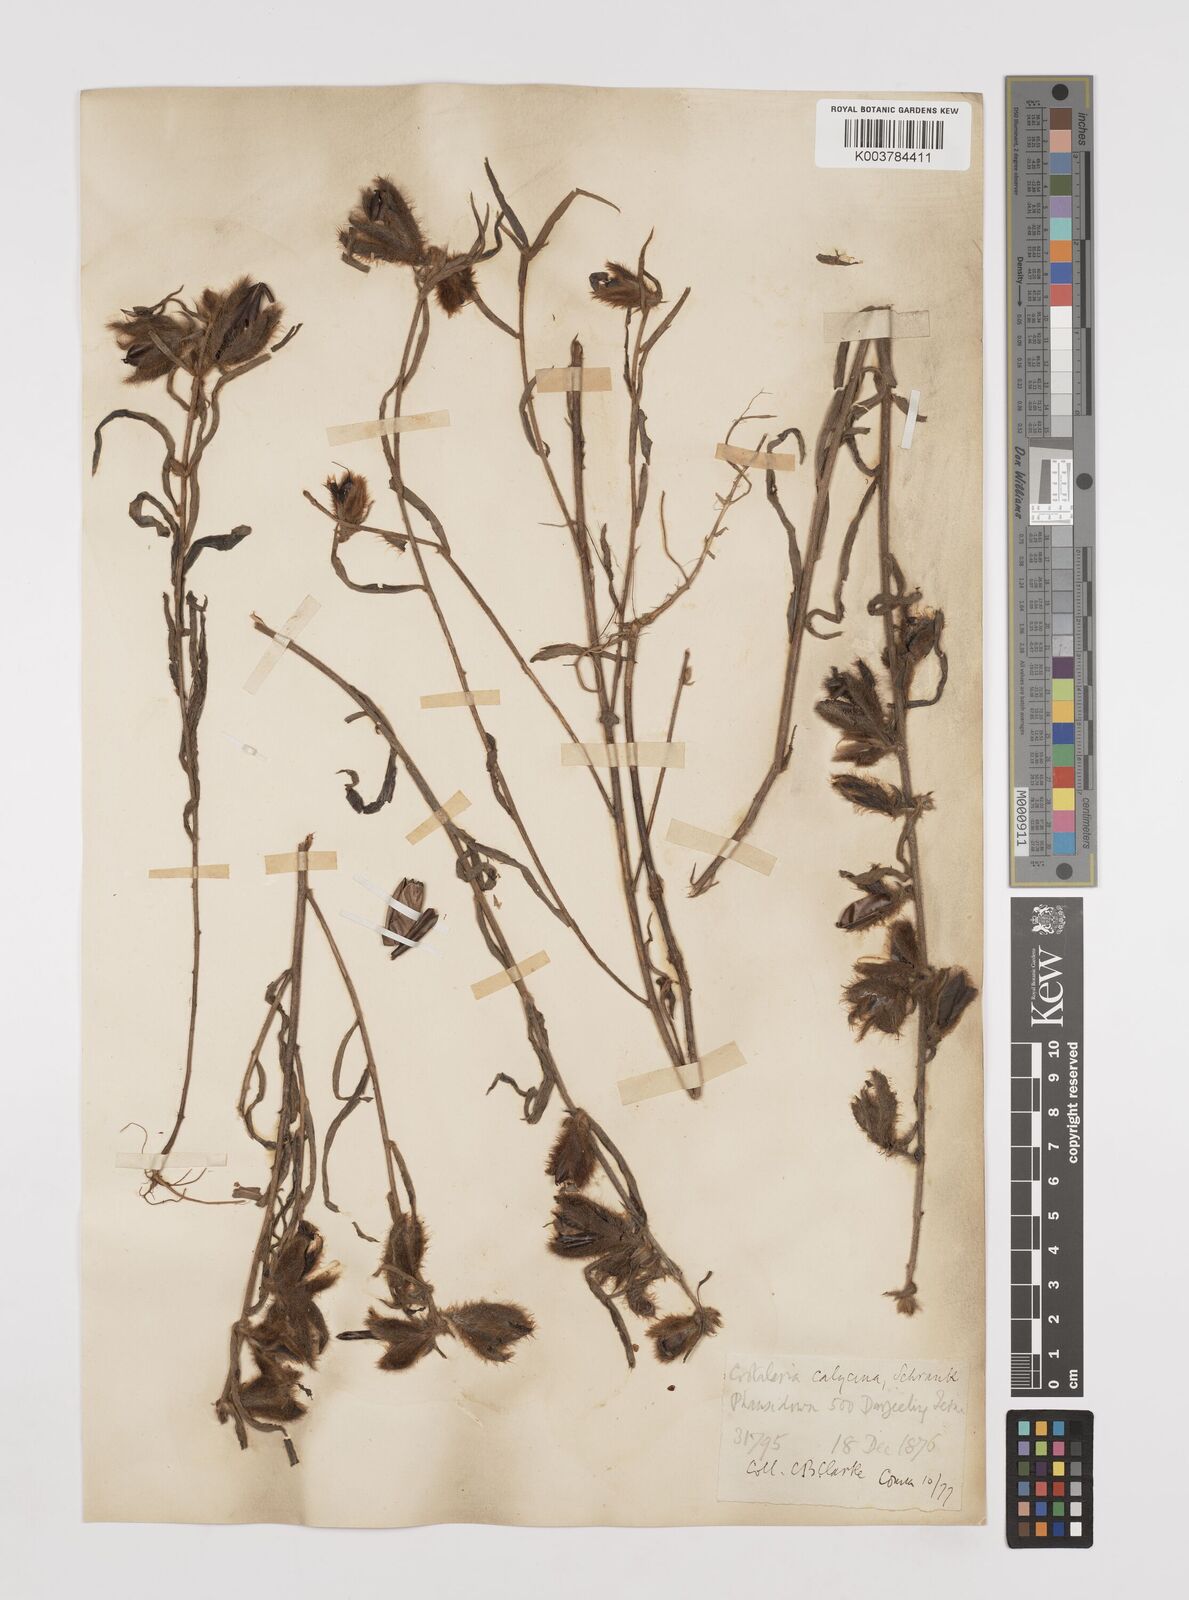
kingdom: Plantae
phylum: Tracheophyta
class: Magnoliopsida
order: Fabales
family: Fabaceae
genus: Crotalaria
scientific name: Crotalaria calycina
